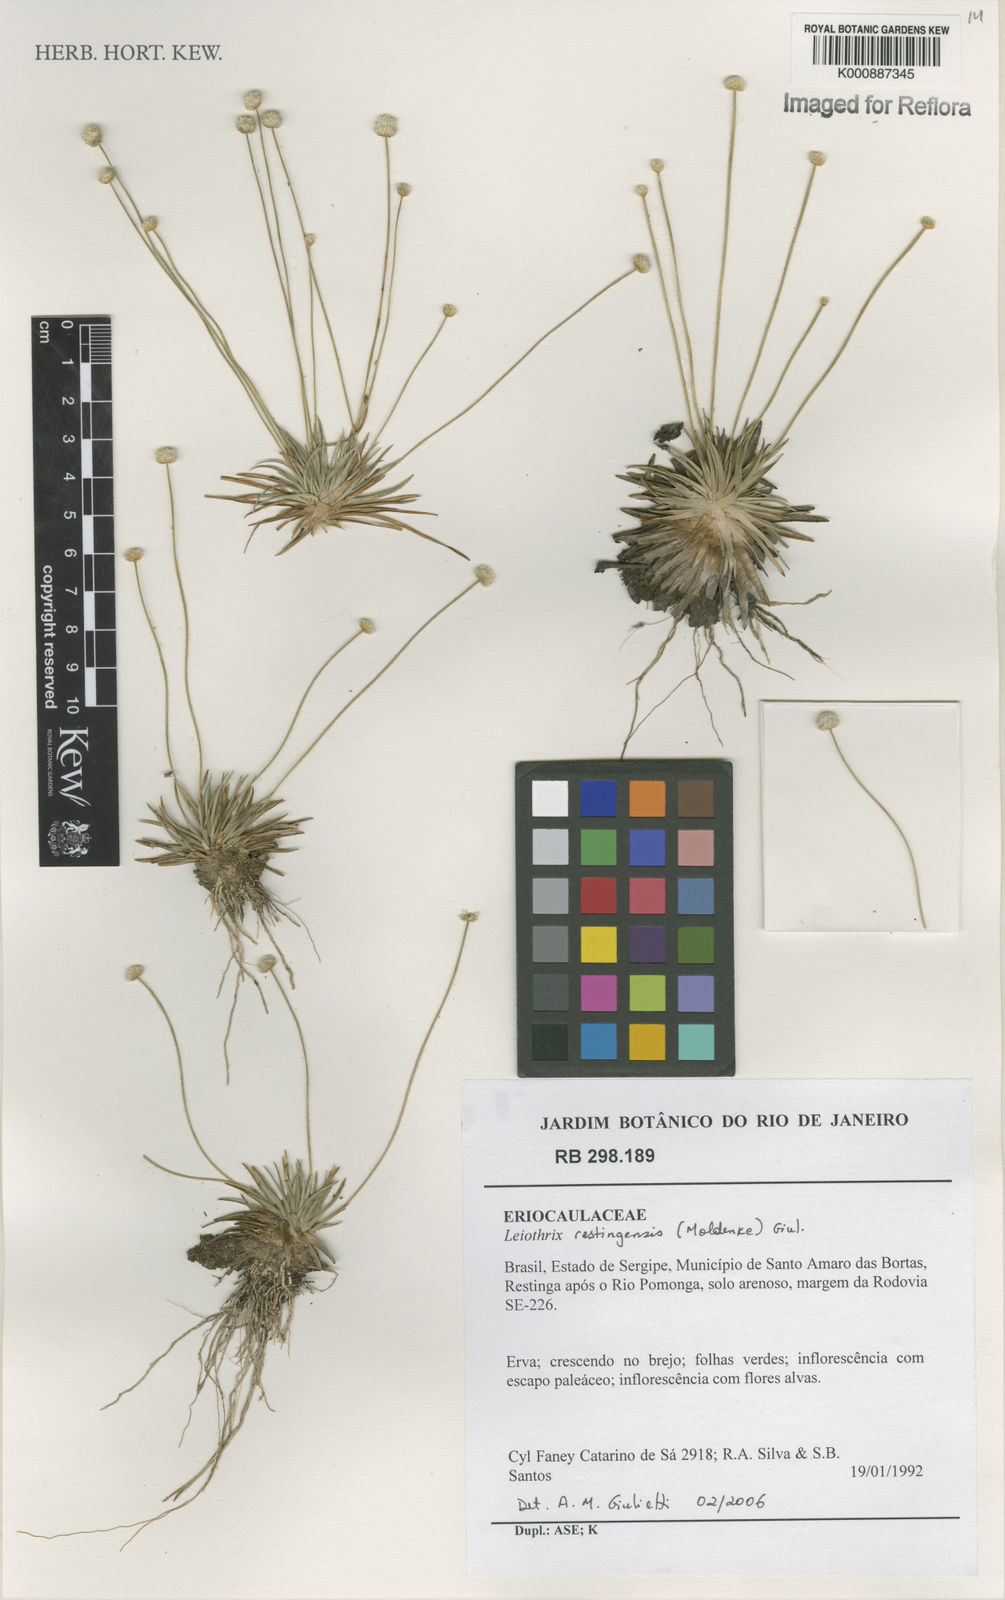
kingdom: Plantae
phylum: Tracheophyta
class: Liliopsida
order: Poales
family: Eriocaulaceae
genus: Leiothrix
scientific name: Leiothrix
